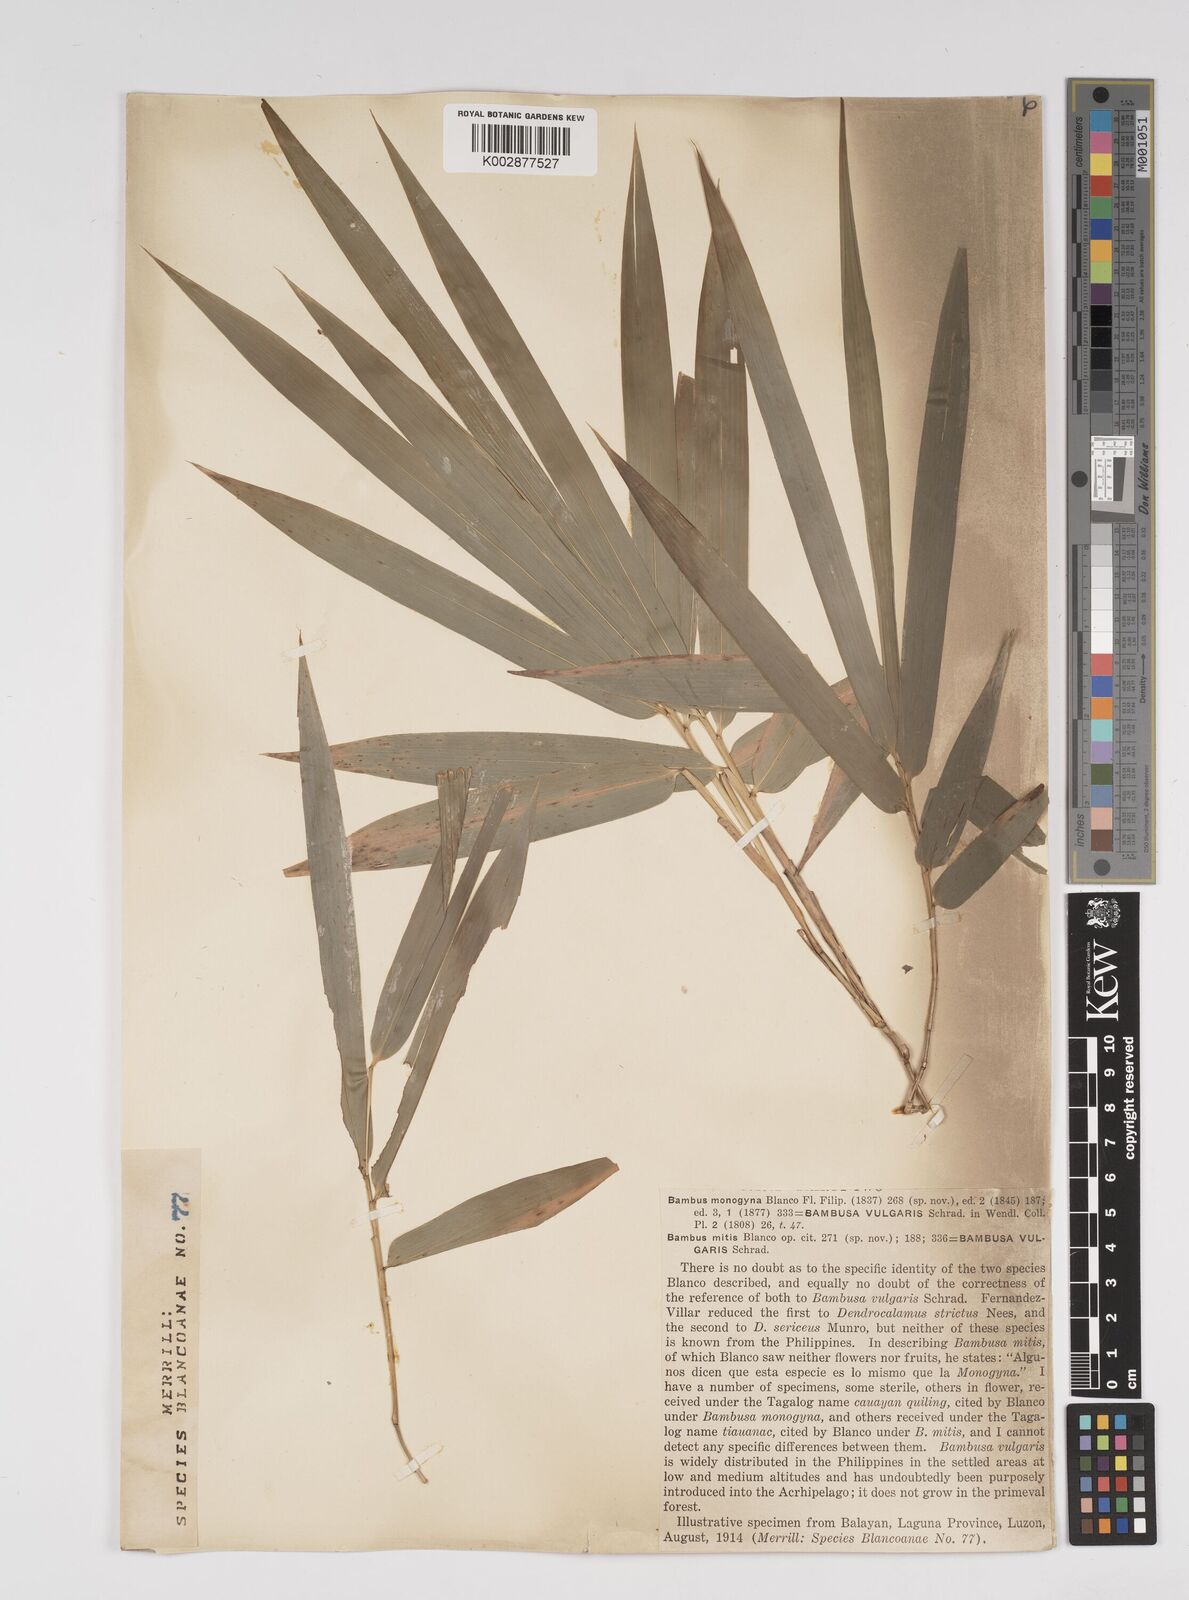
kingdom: Plantae
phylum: Tracheophyta
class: Liliopsida
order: Poales
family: Poaceae
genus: Bambusa
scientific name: Bambusa vulgaris
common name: Common bamboo
